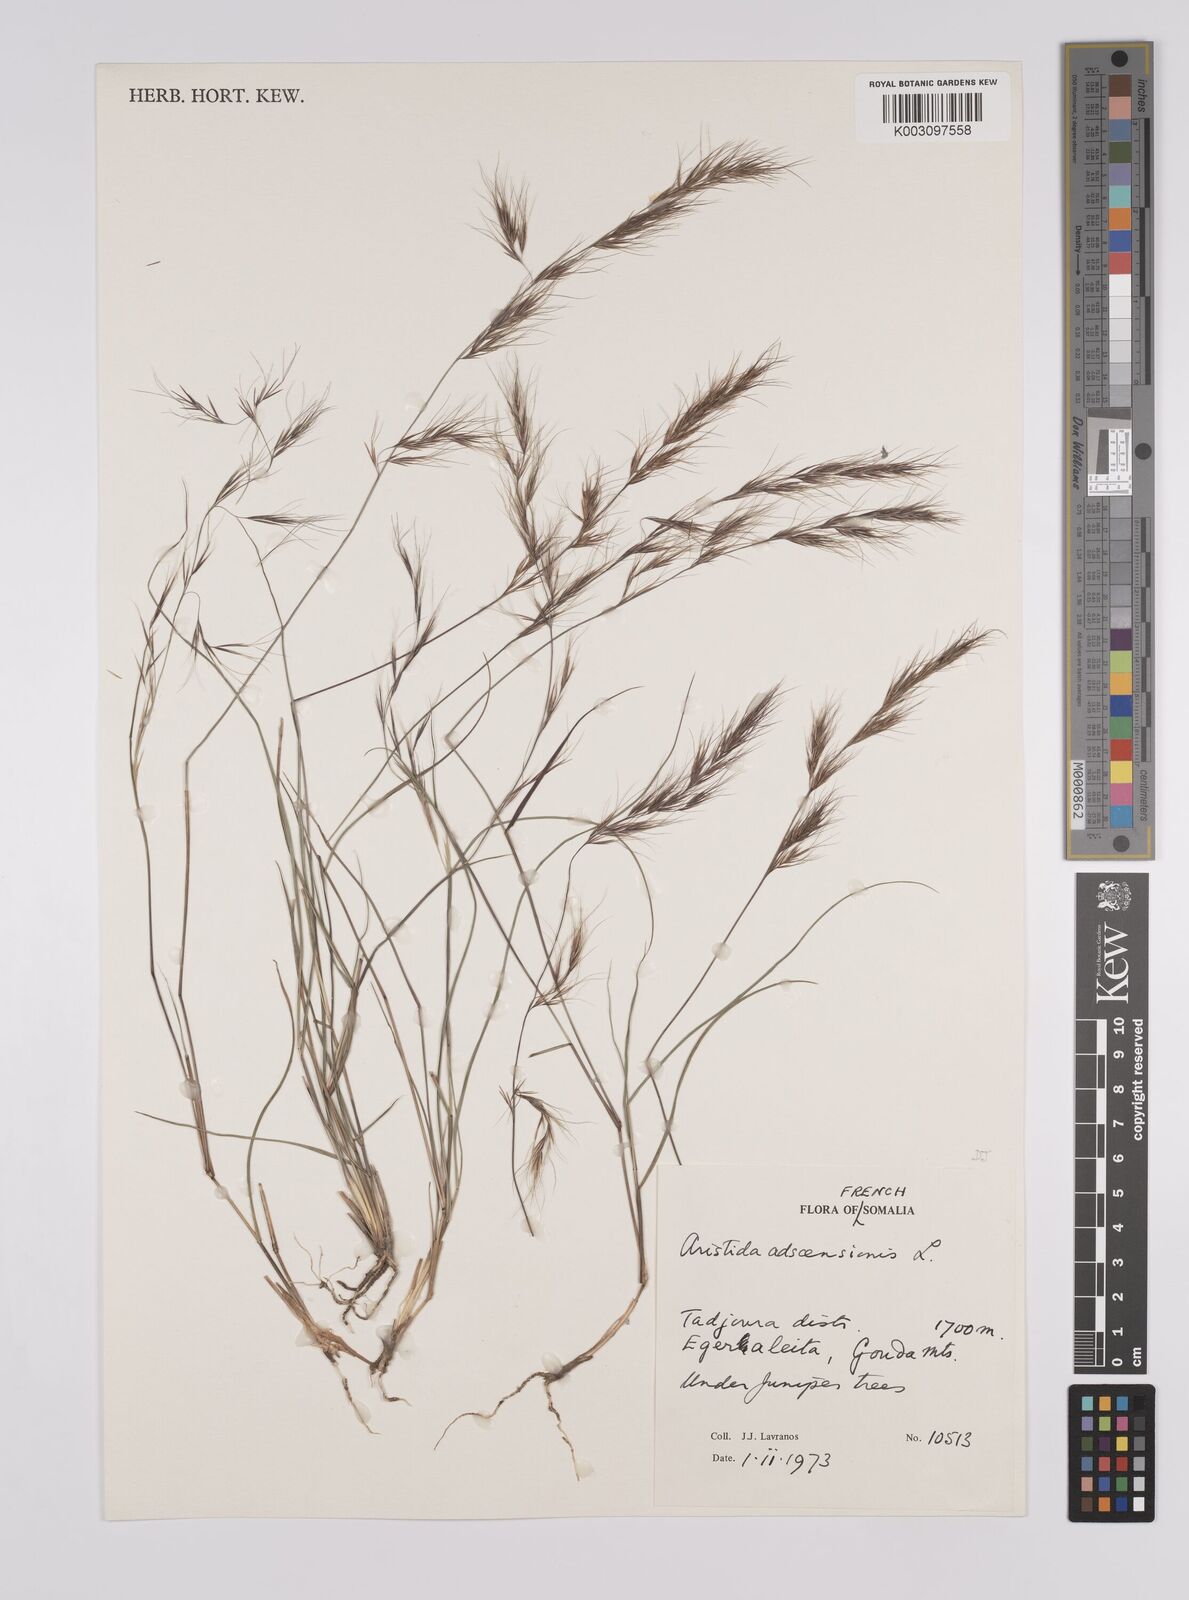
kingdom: Plantae
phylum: Tracheophyta
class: Liliopsida
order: Poales
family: Poaceae
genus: Aristida
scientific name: Aristida adscensionis
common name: Sixweeks threeawn
